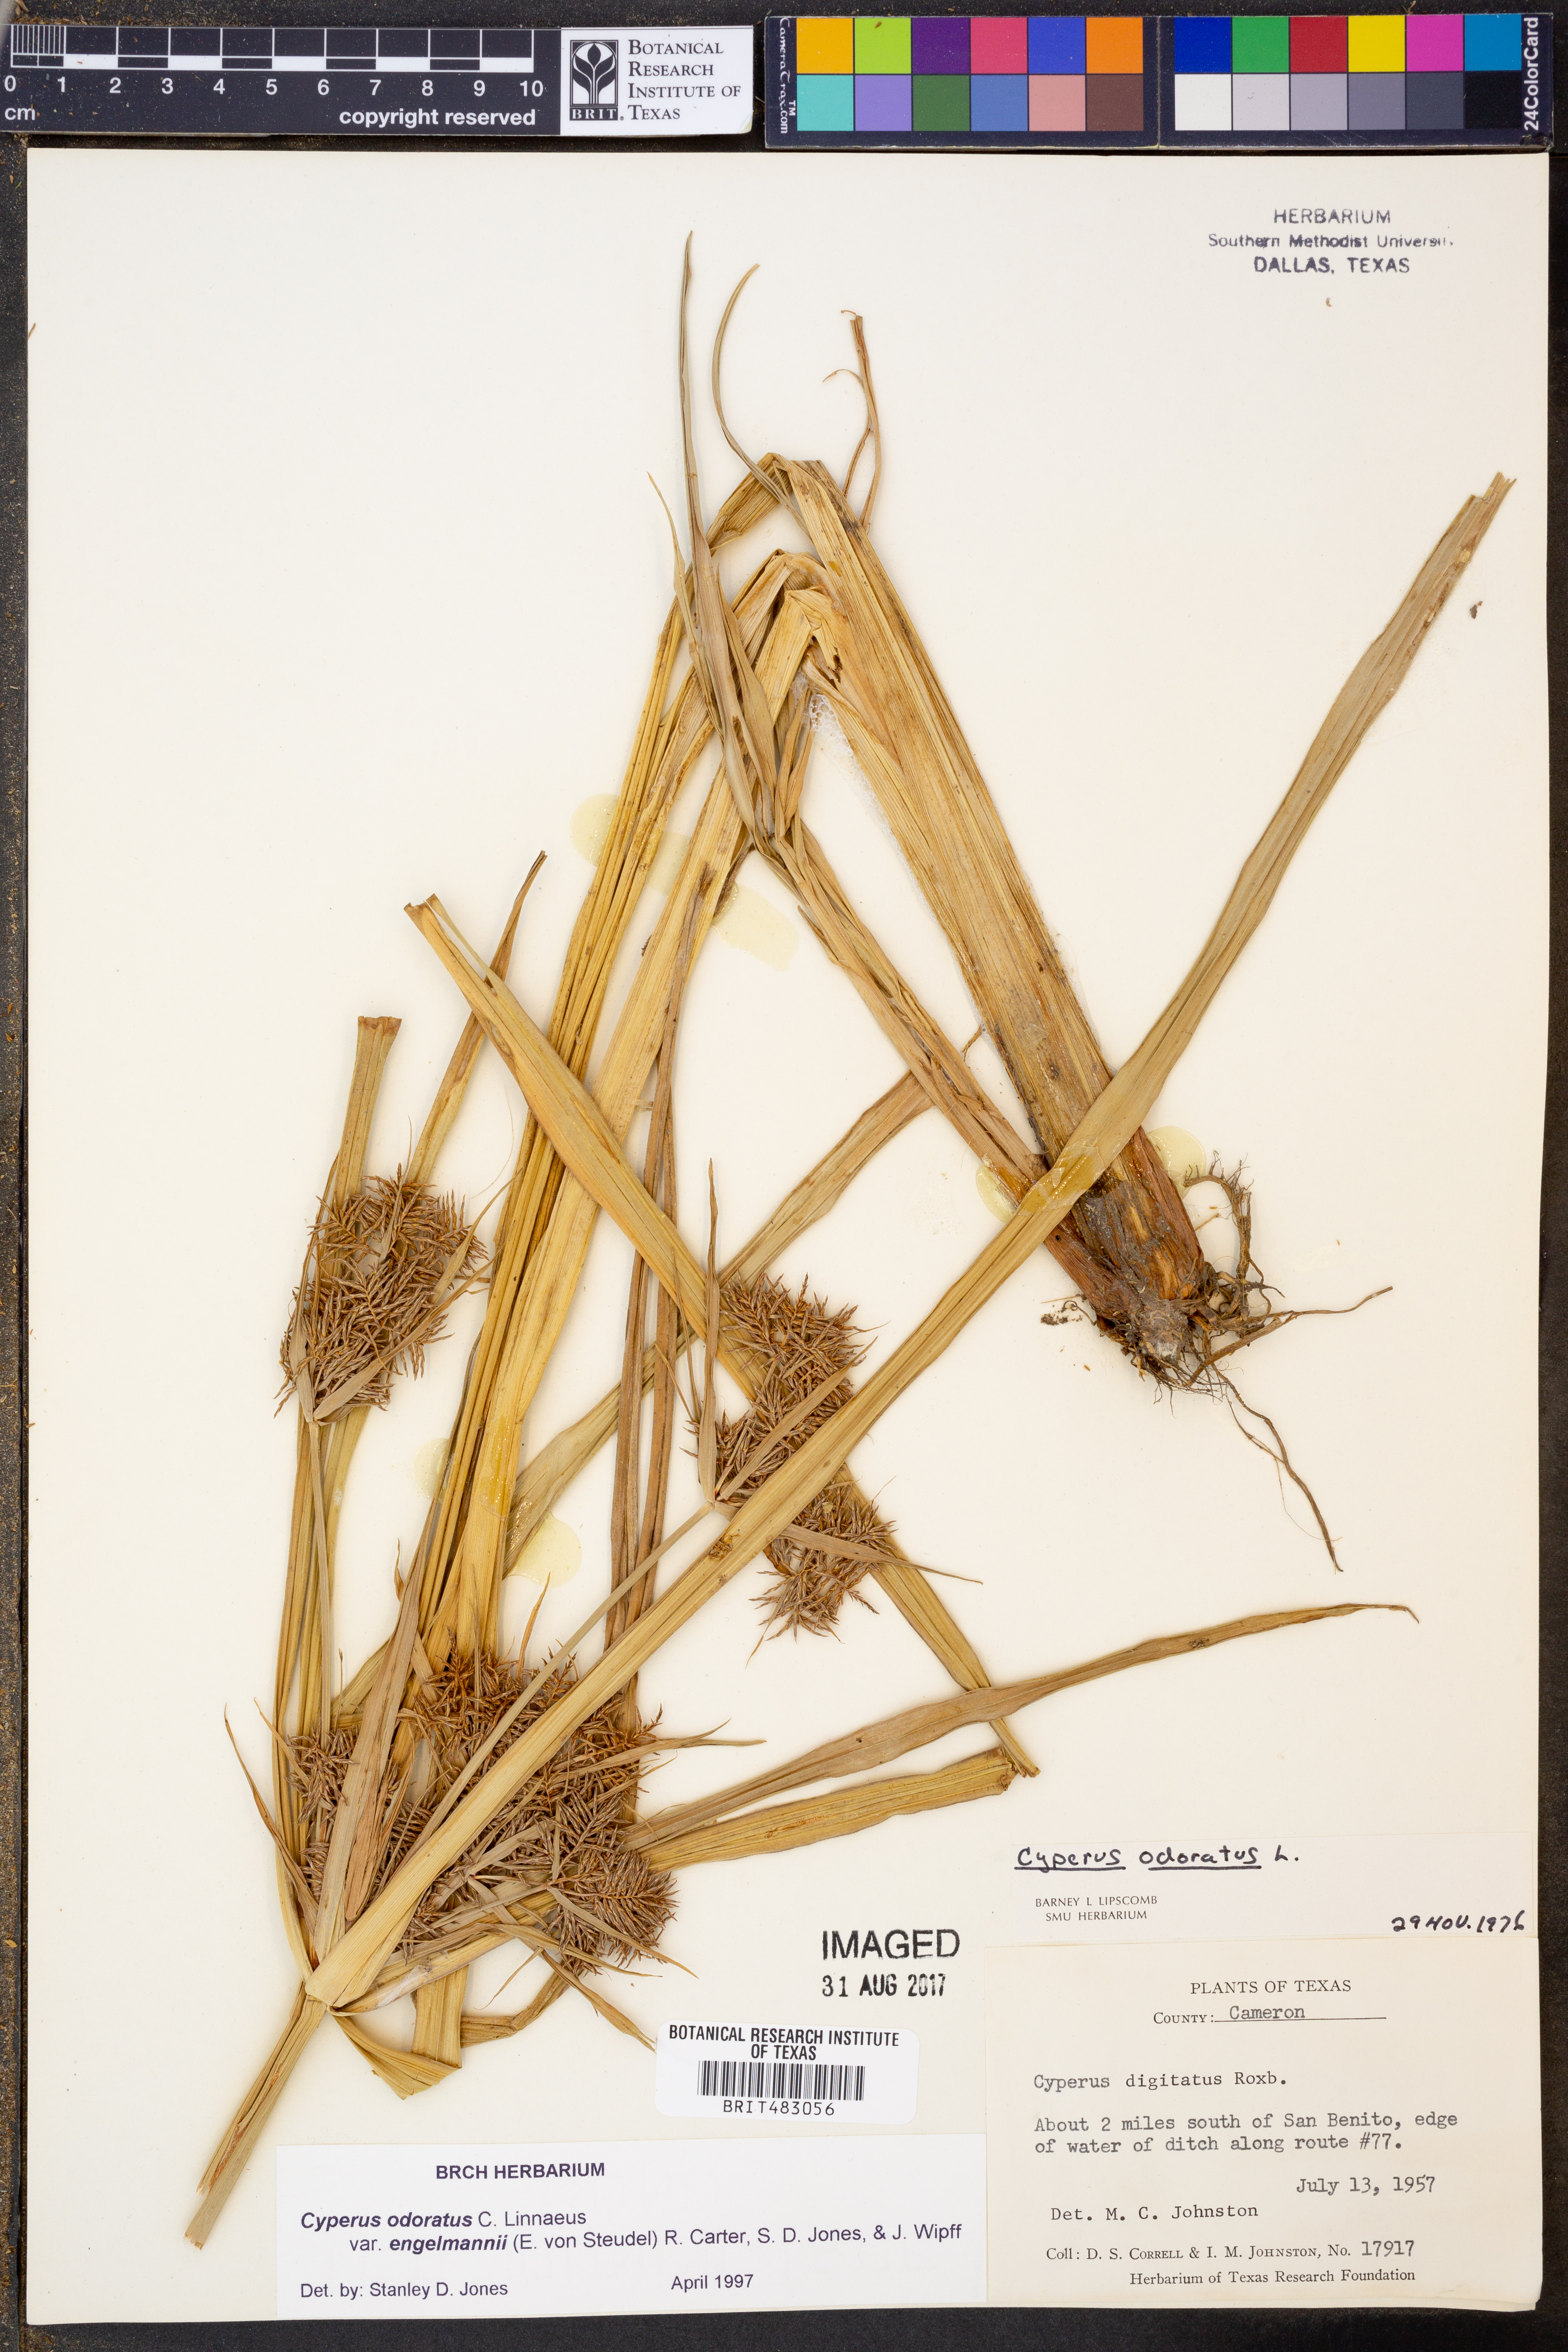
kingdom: Plantae
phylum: Tracheophyta
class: Liliopsida
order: Poales
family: Cyperaceae
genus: Cyperus
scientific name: Cyperus odoratus
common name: Fragrant flatsedge
